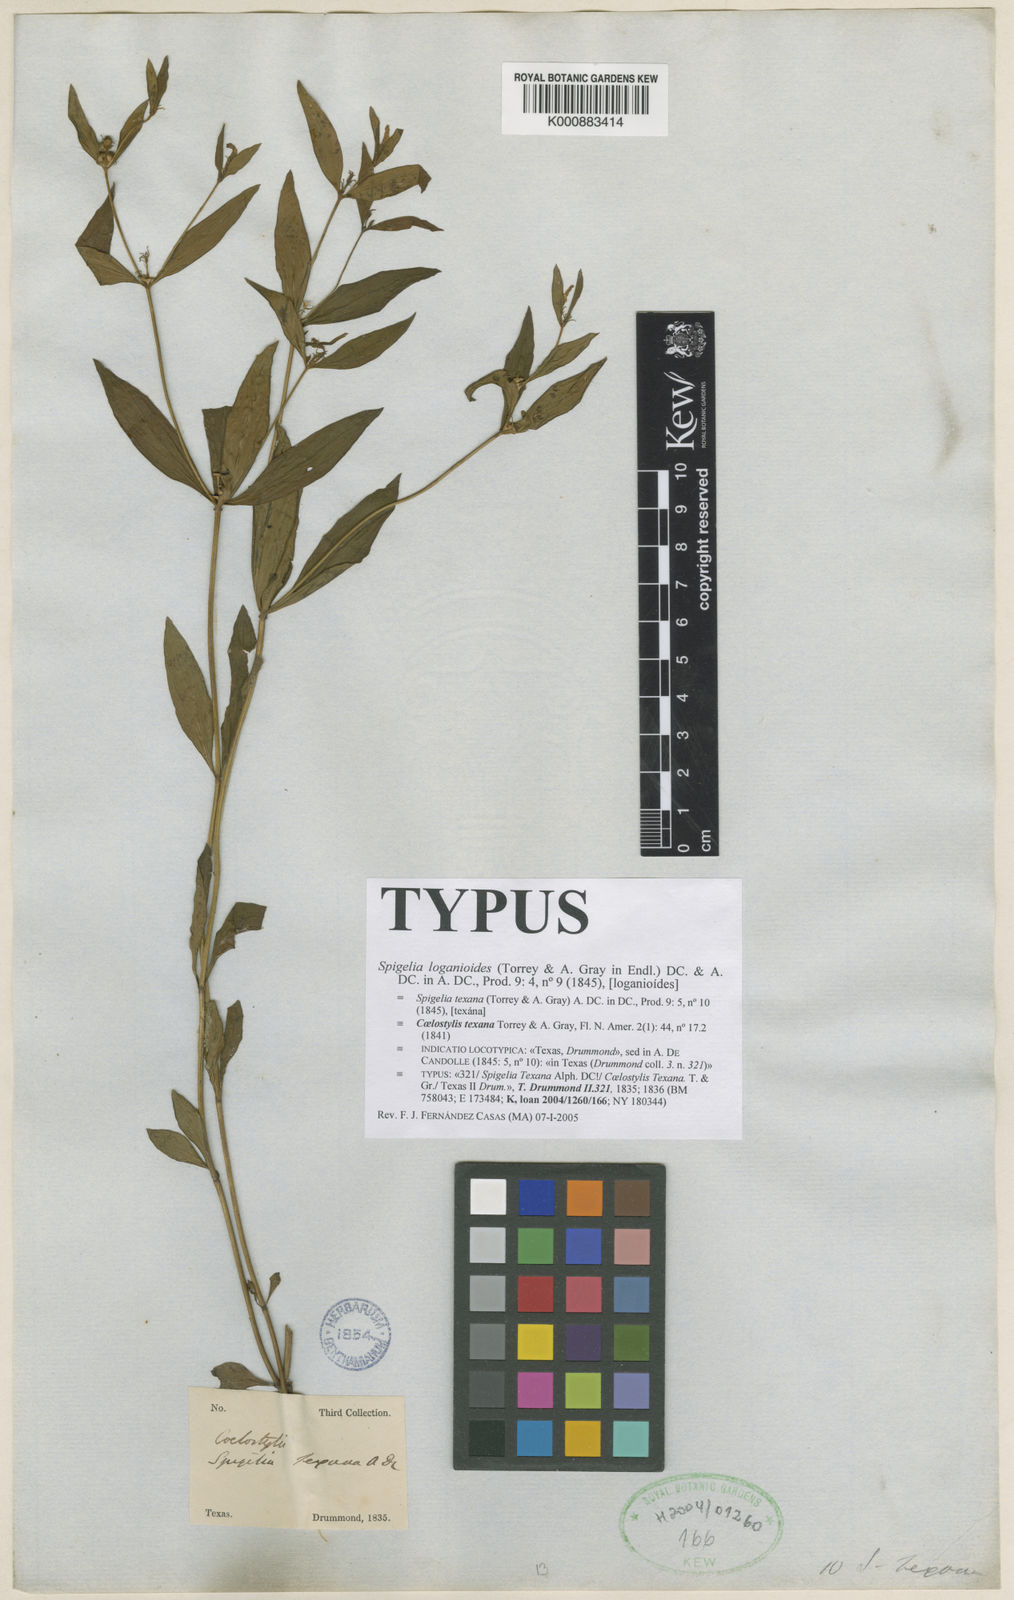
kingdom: Plantae
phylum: Tracheophyta
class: Magnoliopsida
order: Gentianales
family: Loganiaceae
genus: Spigelia
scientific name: Spigelia loganioides
